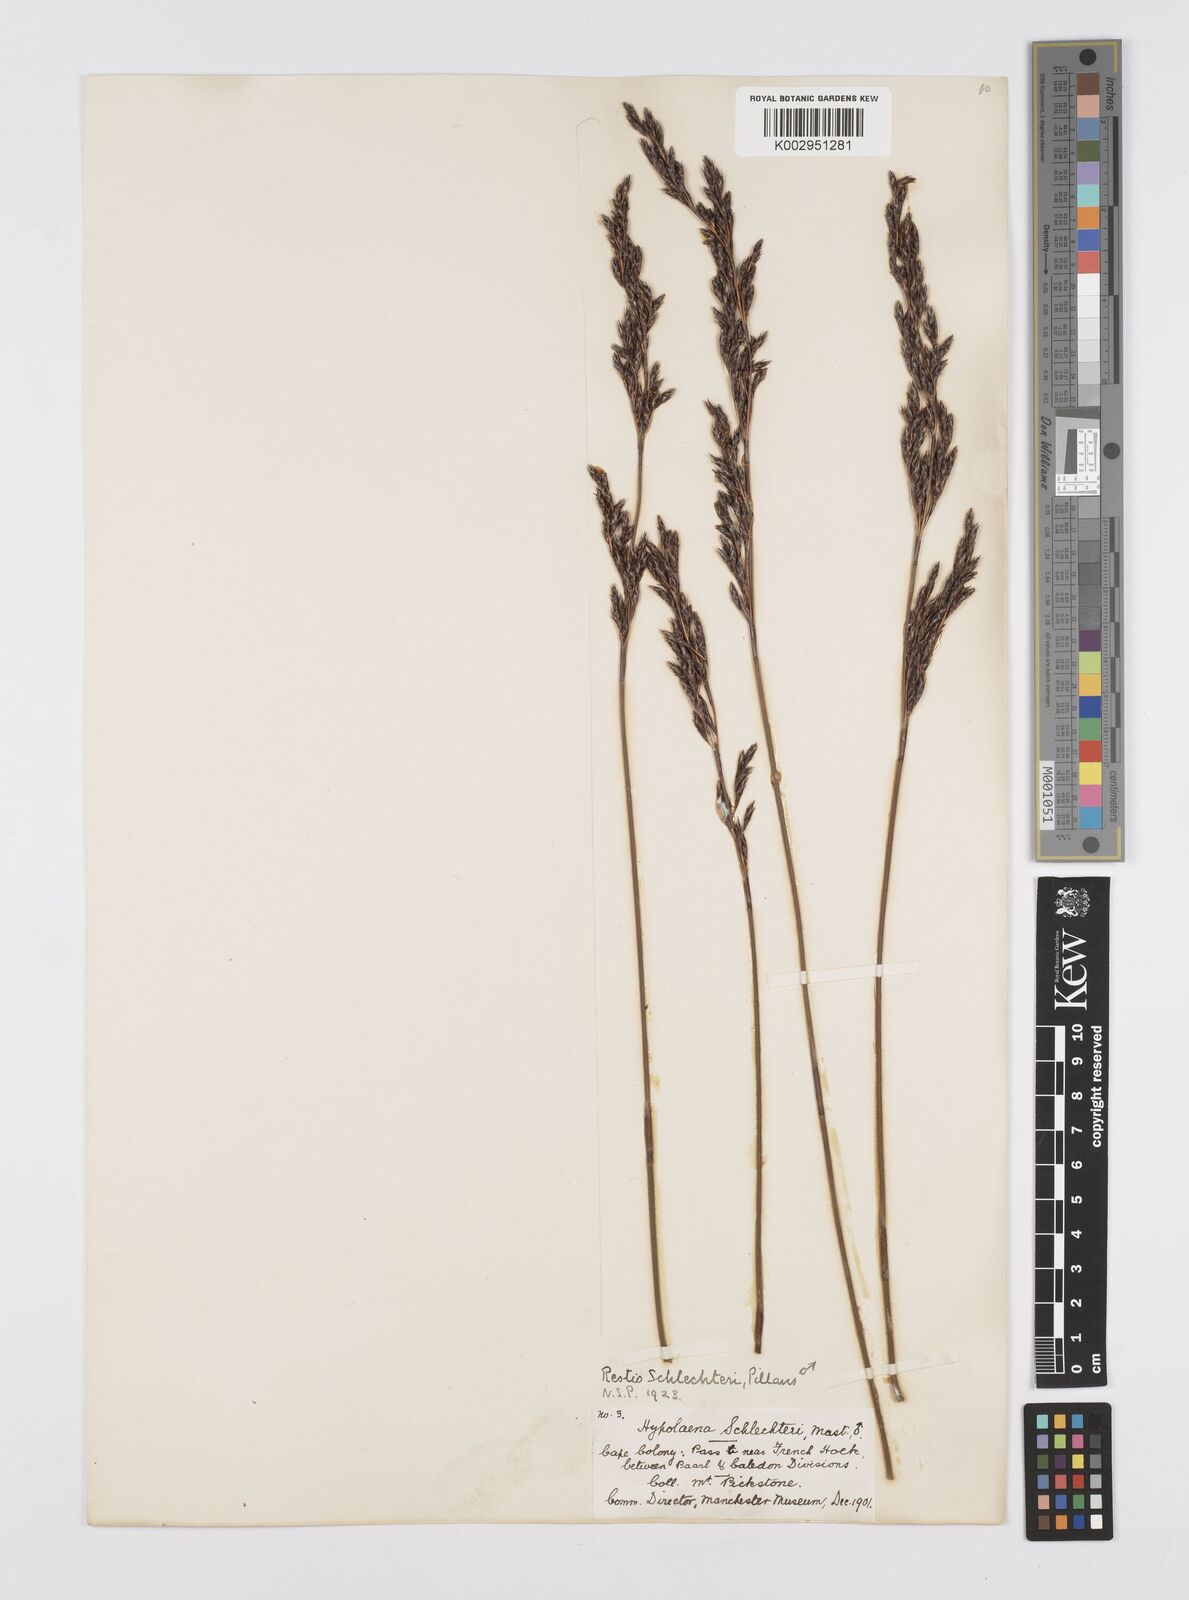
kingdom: Plantae
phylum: Tracheophyta
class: Liliopsida
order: Poales
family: Restionaceae
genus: Restio
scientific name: Restio occultus
